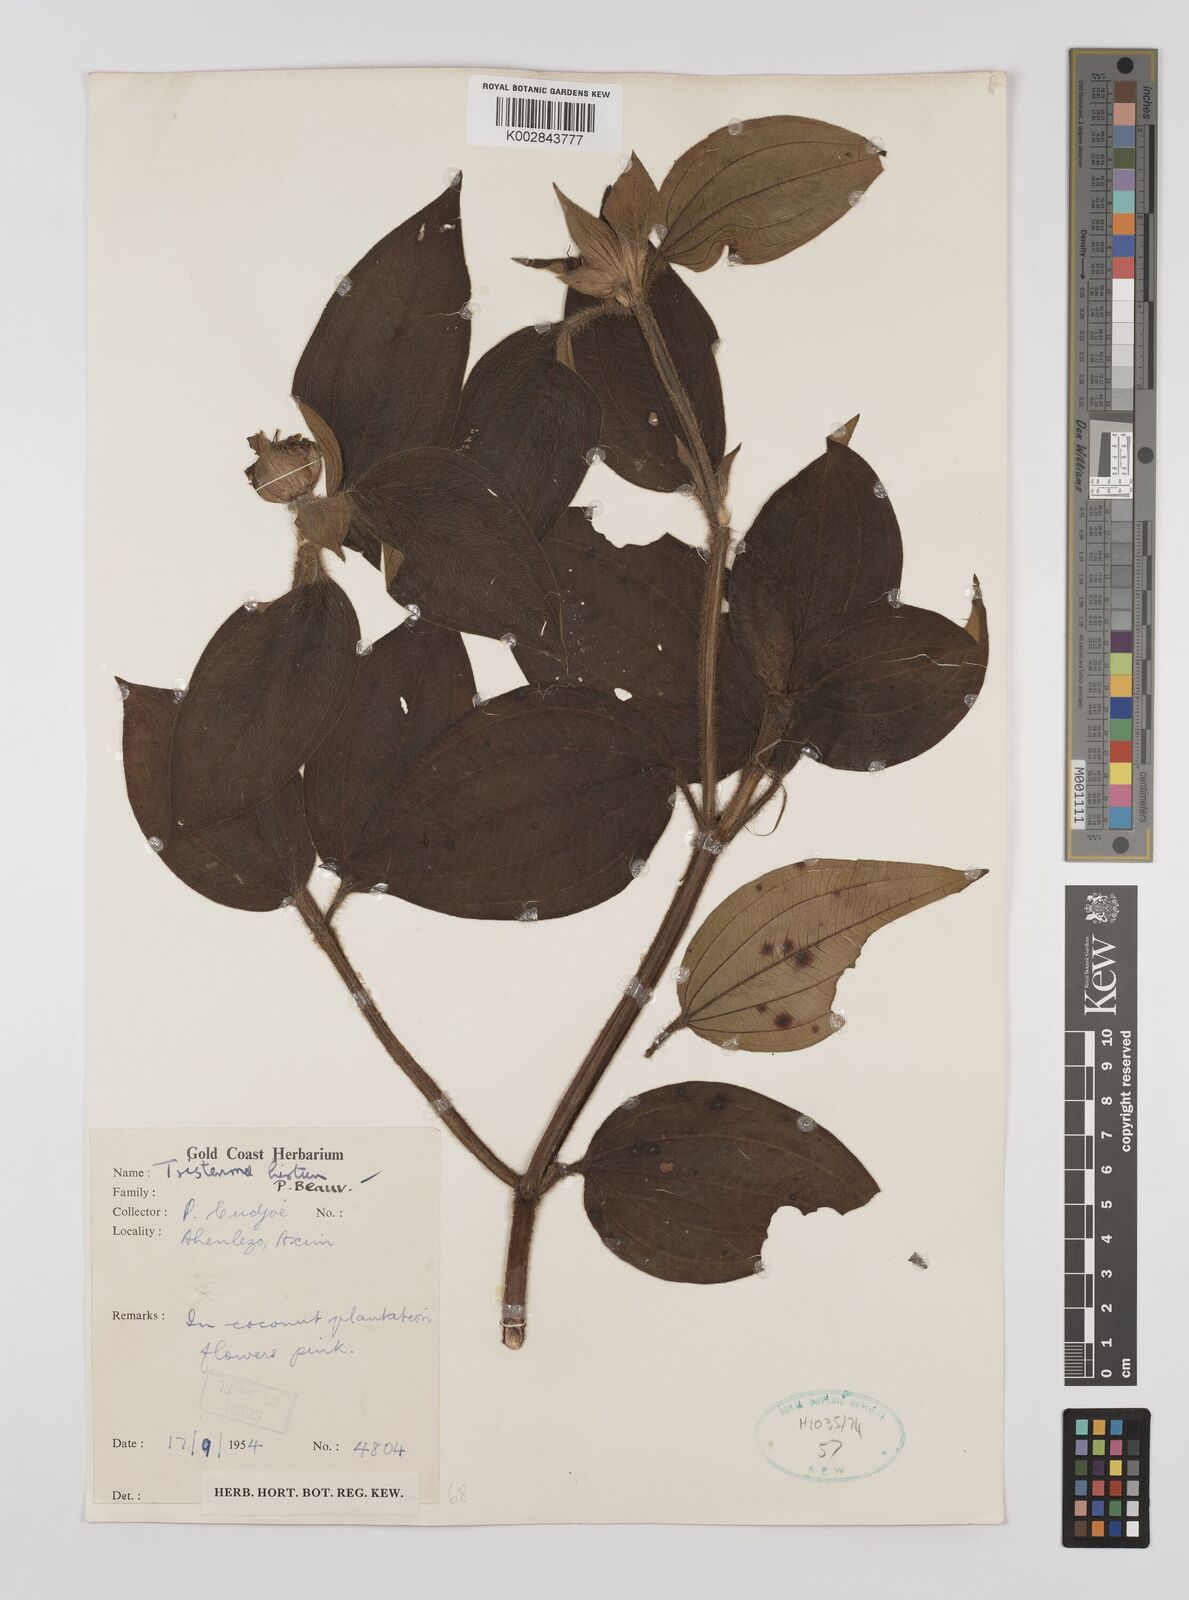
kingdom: Plantae
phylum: Tracheophyta
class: Magnoliopsida
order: Myrtales
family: Melastomataceae
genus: Tristemma
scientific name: Tristemma
